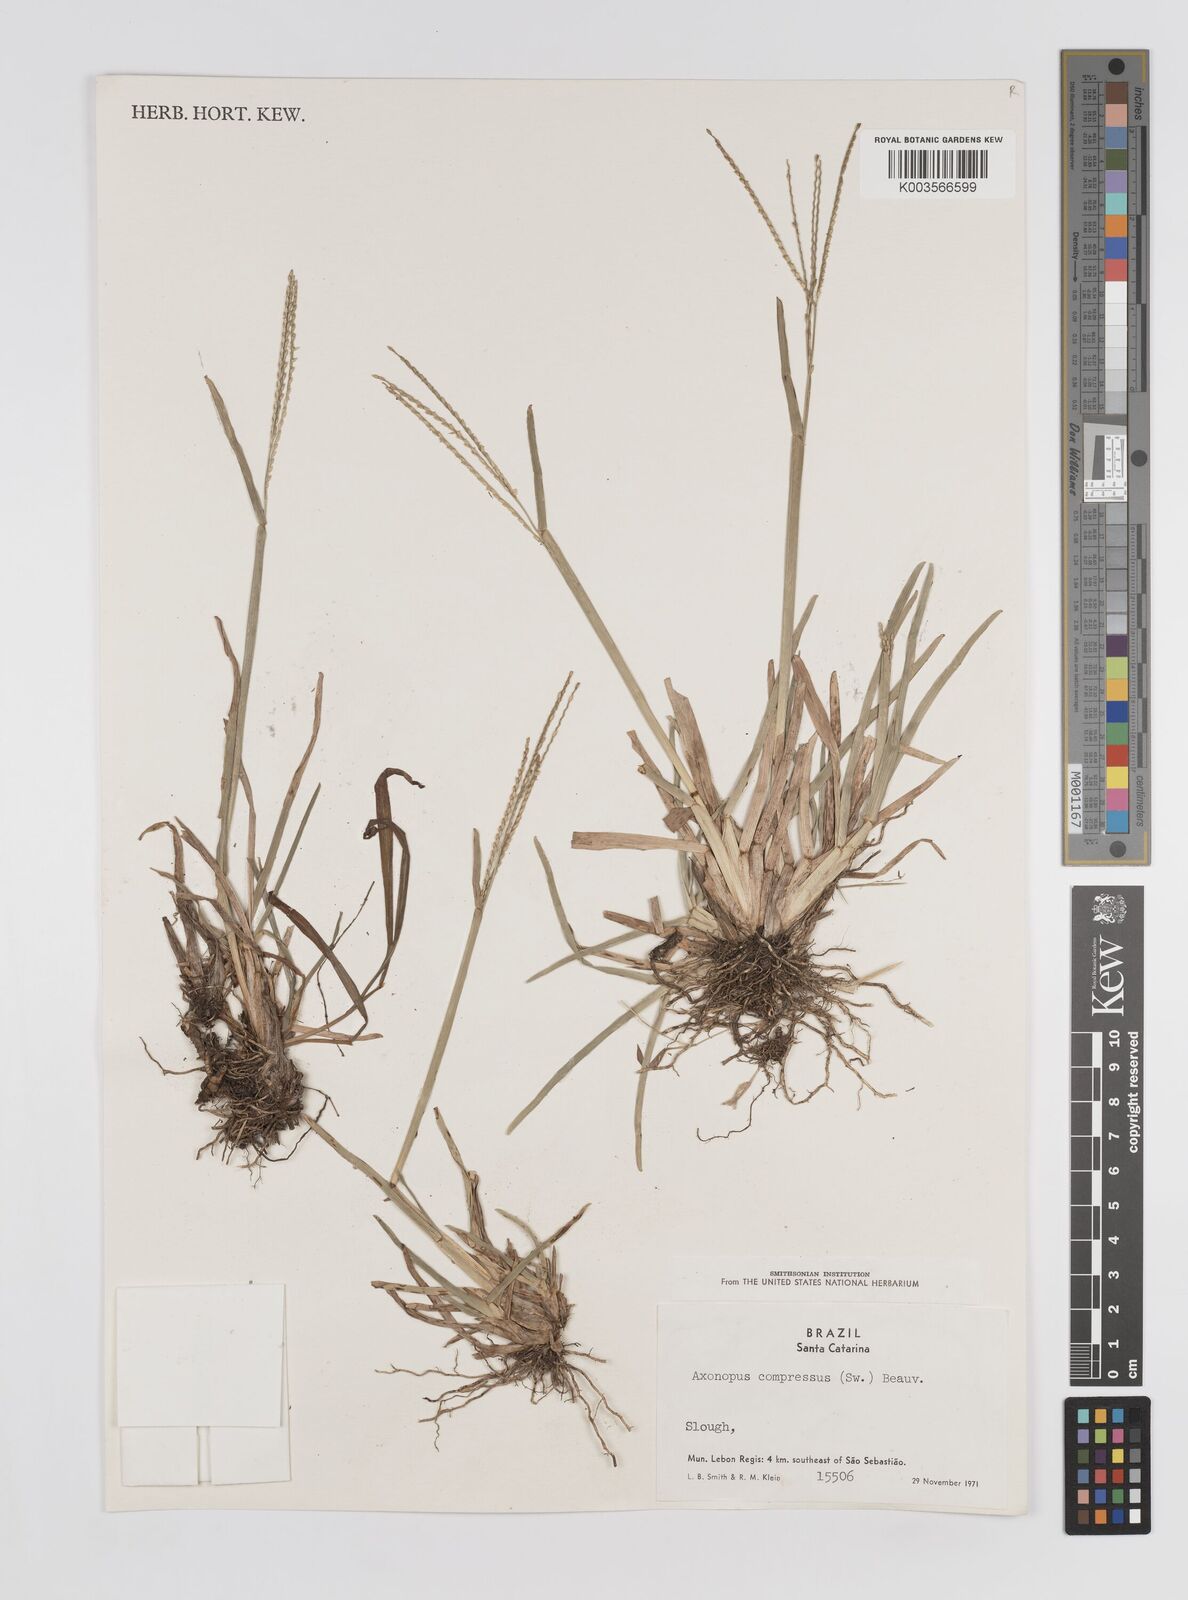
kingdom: Plantae
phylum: Tracheophyta
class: Liliopsida
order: Poales
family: Poaceae
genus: Axonopus
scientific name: Axonopus compressus
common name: American carpet grass
